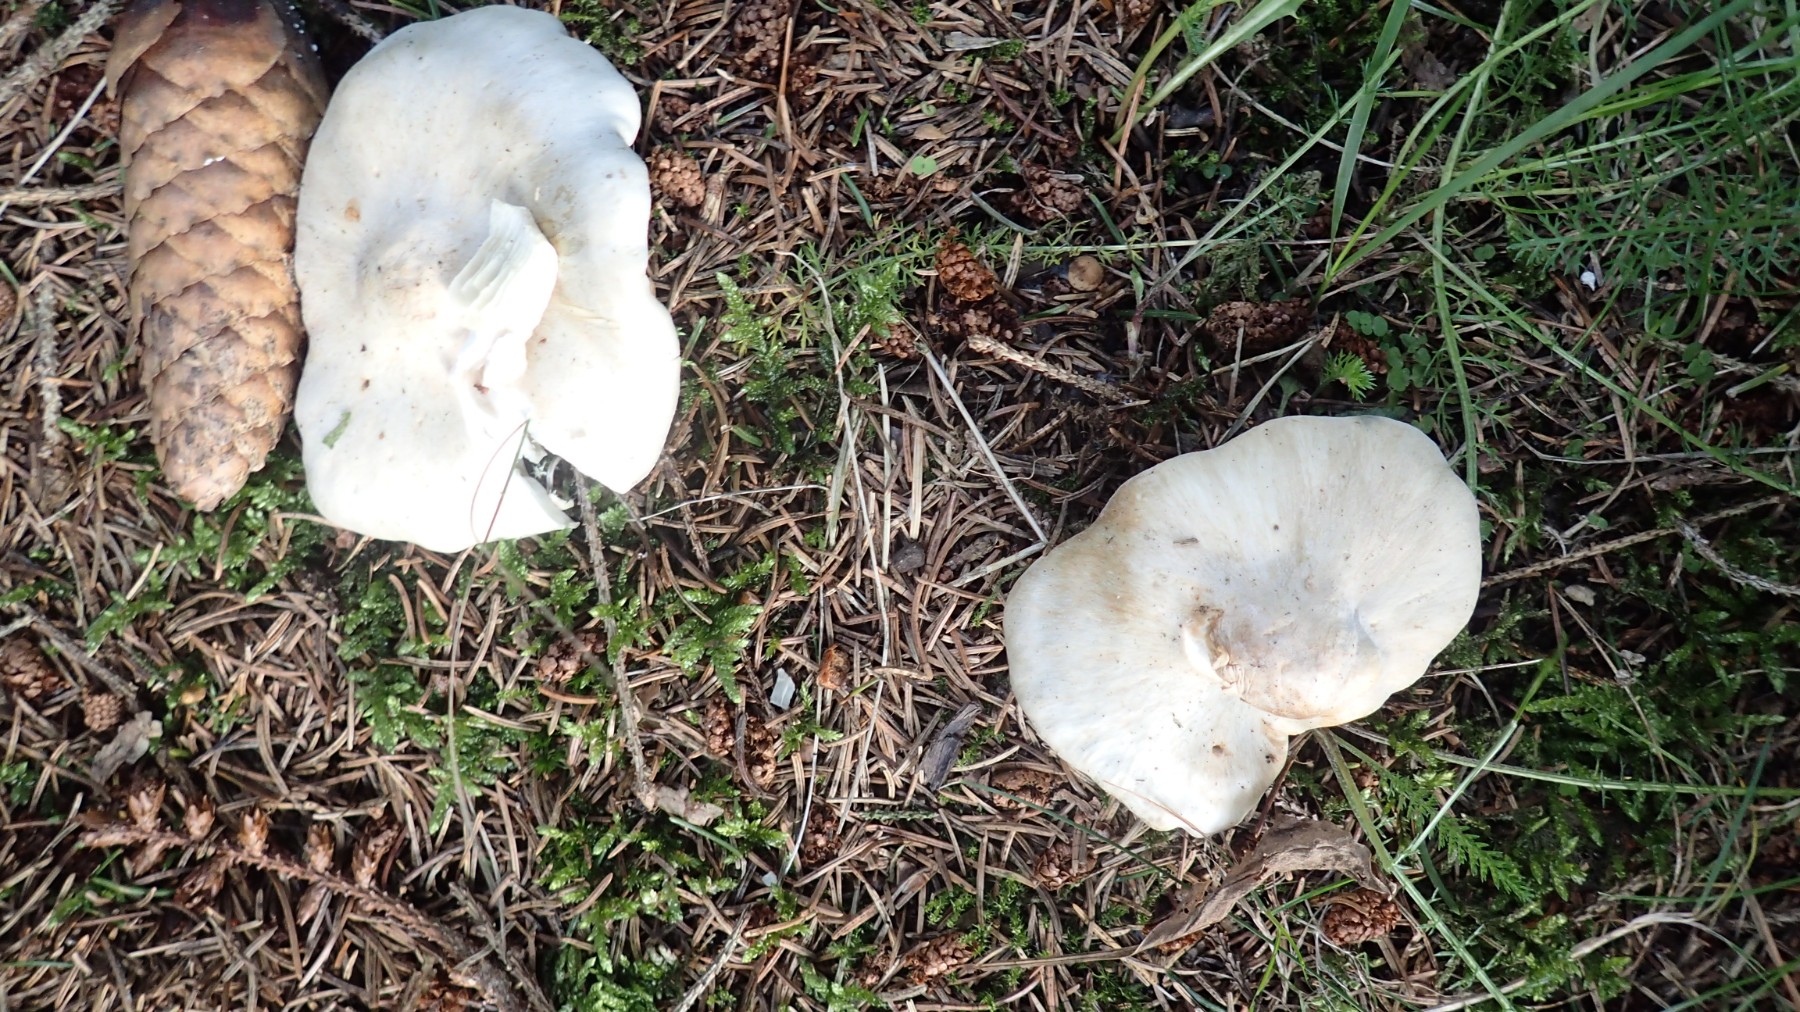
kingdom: Fungi
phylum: Basidiomycota
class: Agaricomycetes
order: Agaricales
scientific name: Agaricales
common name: champignonordenen
